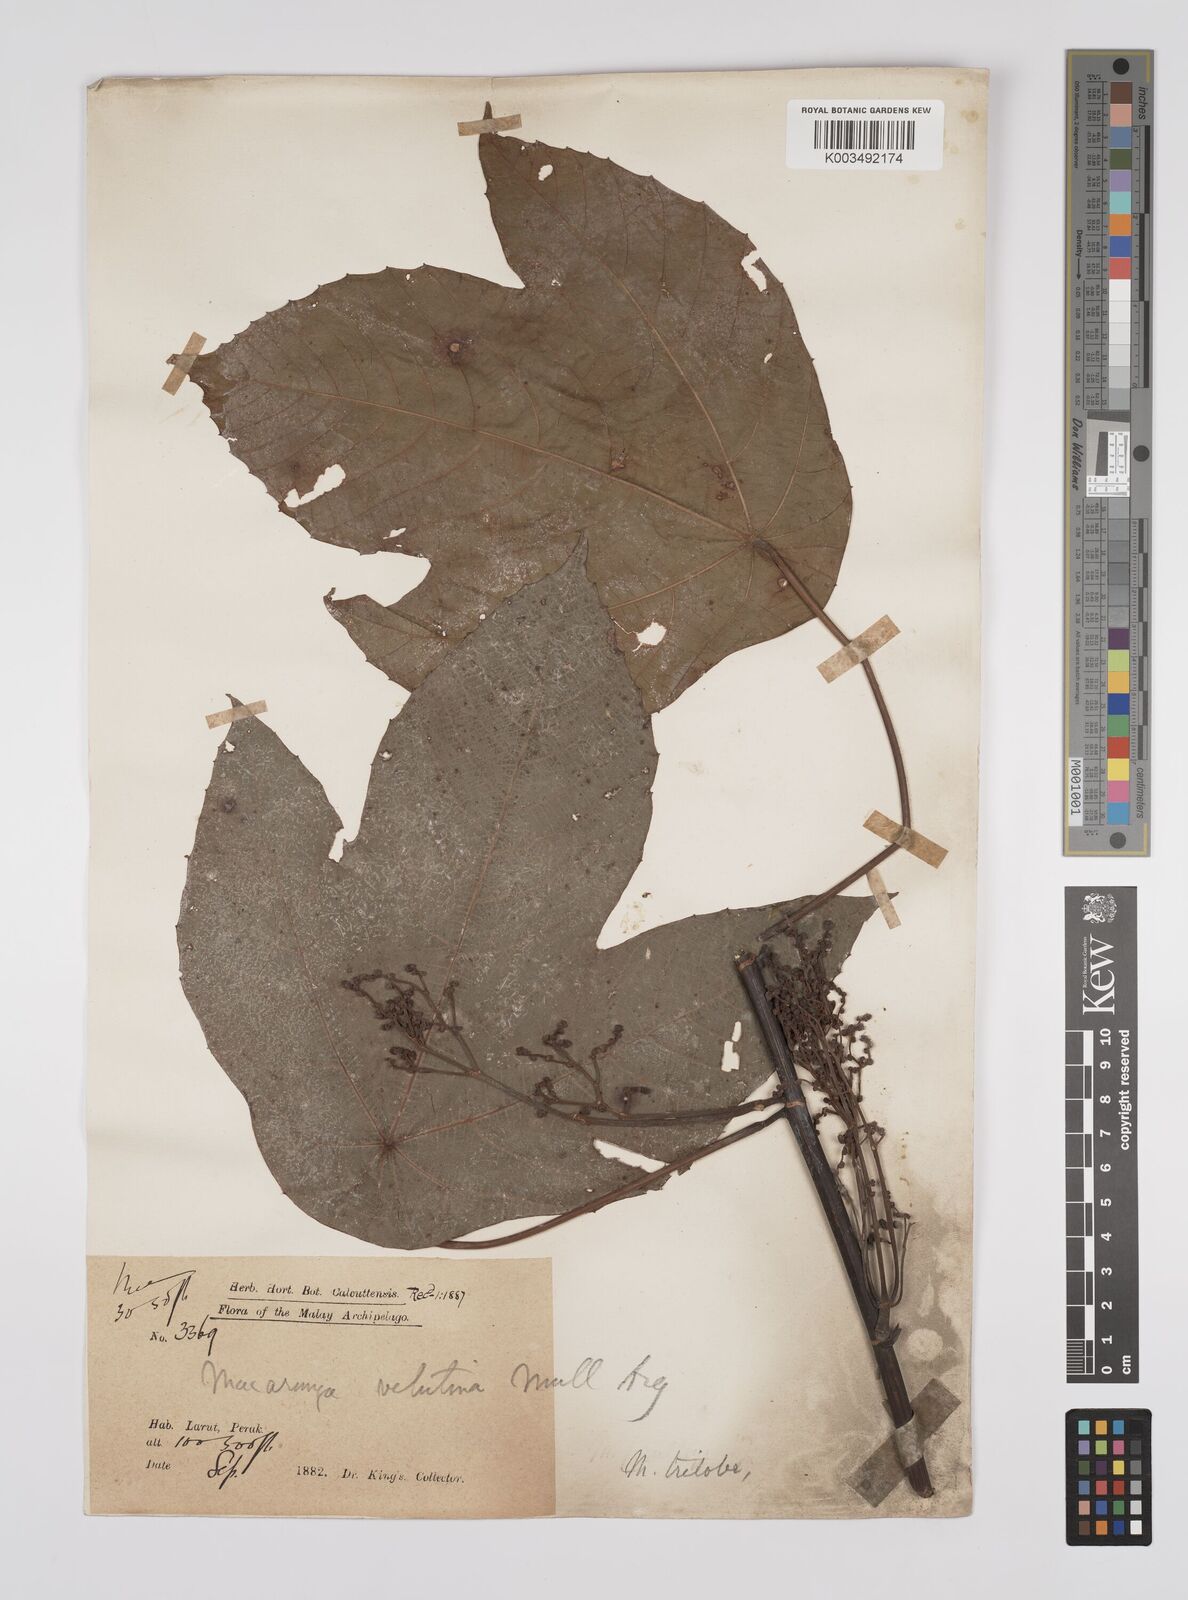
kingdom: Plantae
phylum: Tracheophyta
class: Magnoliopsida
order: Malpighiales
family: Euphorbiaceae
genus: Macaranga
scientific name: Macaranga triloba
